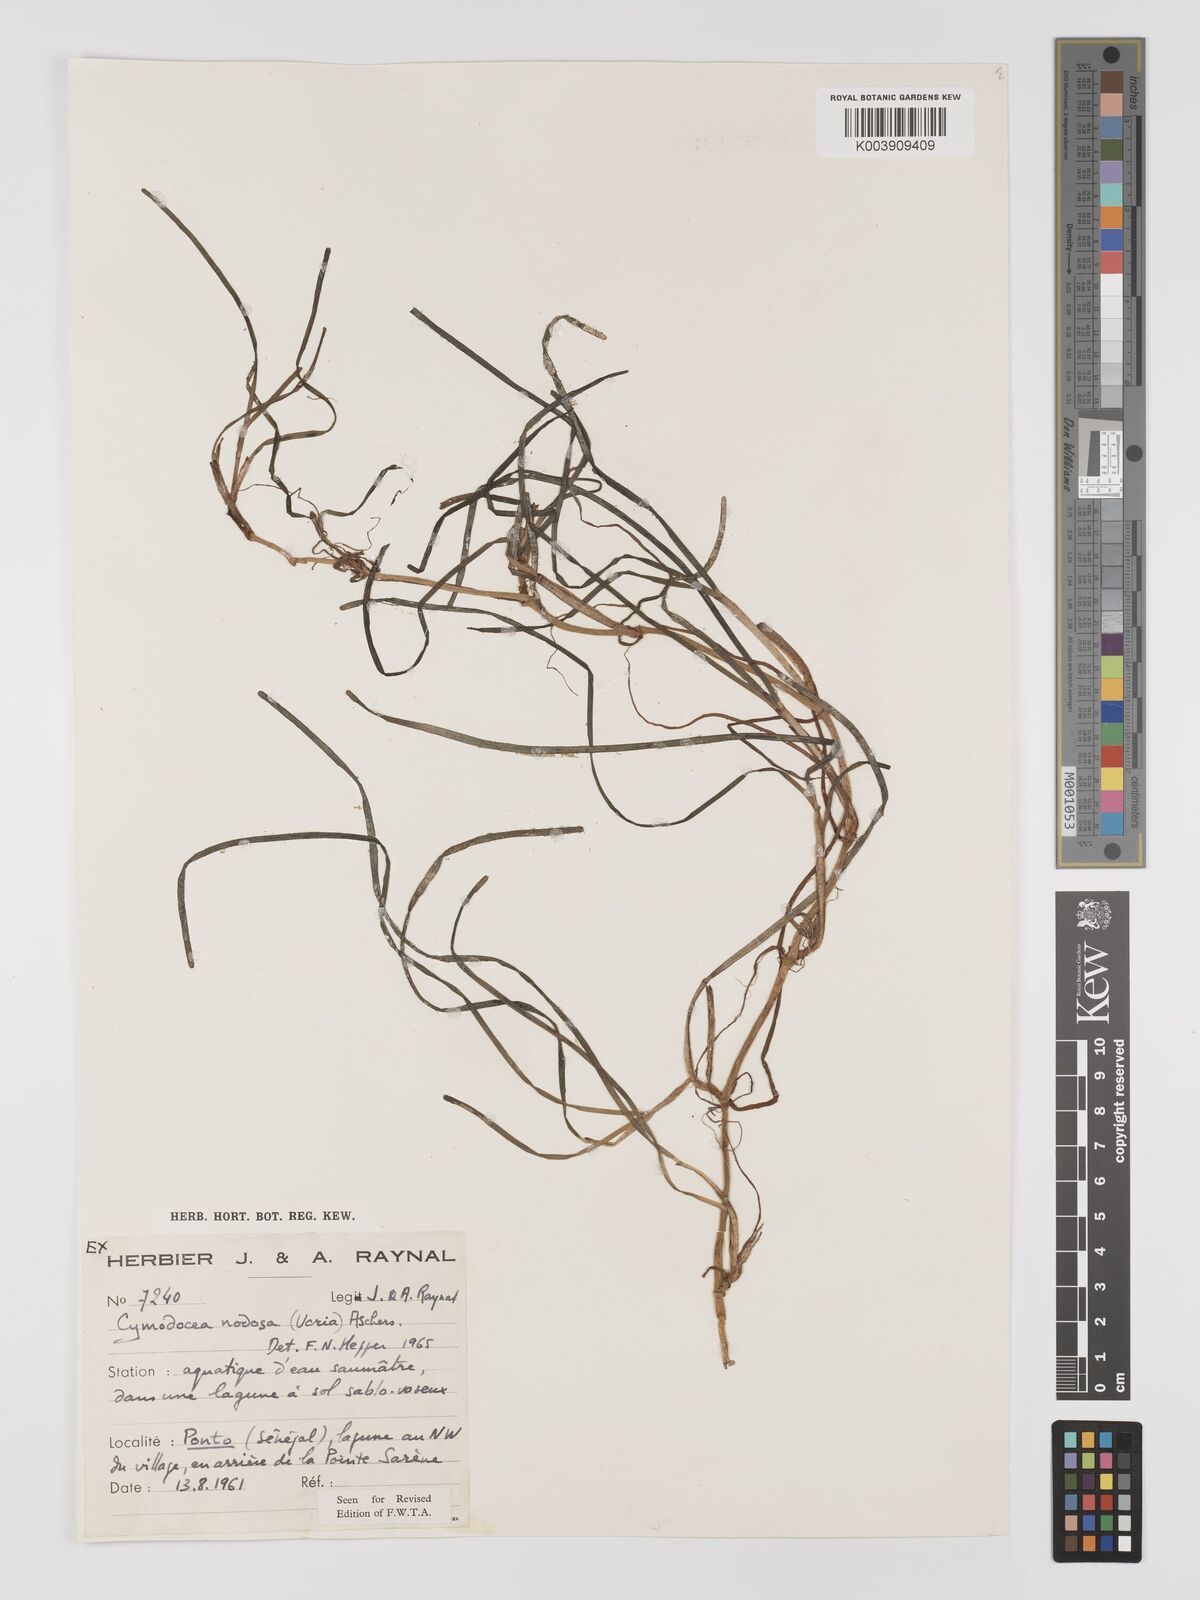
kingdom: Plantae
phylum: Tracheophyta
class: Liliopsida
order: Alismatales
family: Cymodoceaceae
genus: Cymodocea
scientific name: Cymodocea nodosa
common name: Slender seagrass
